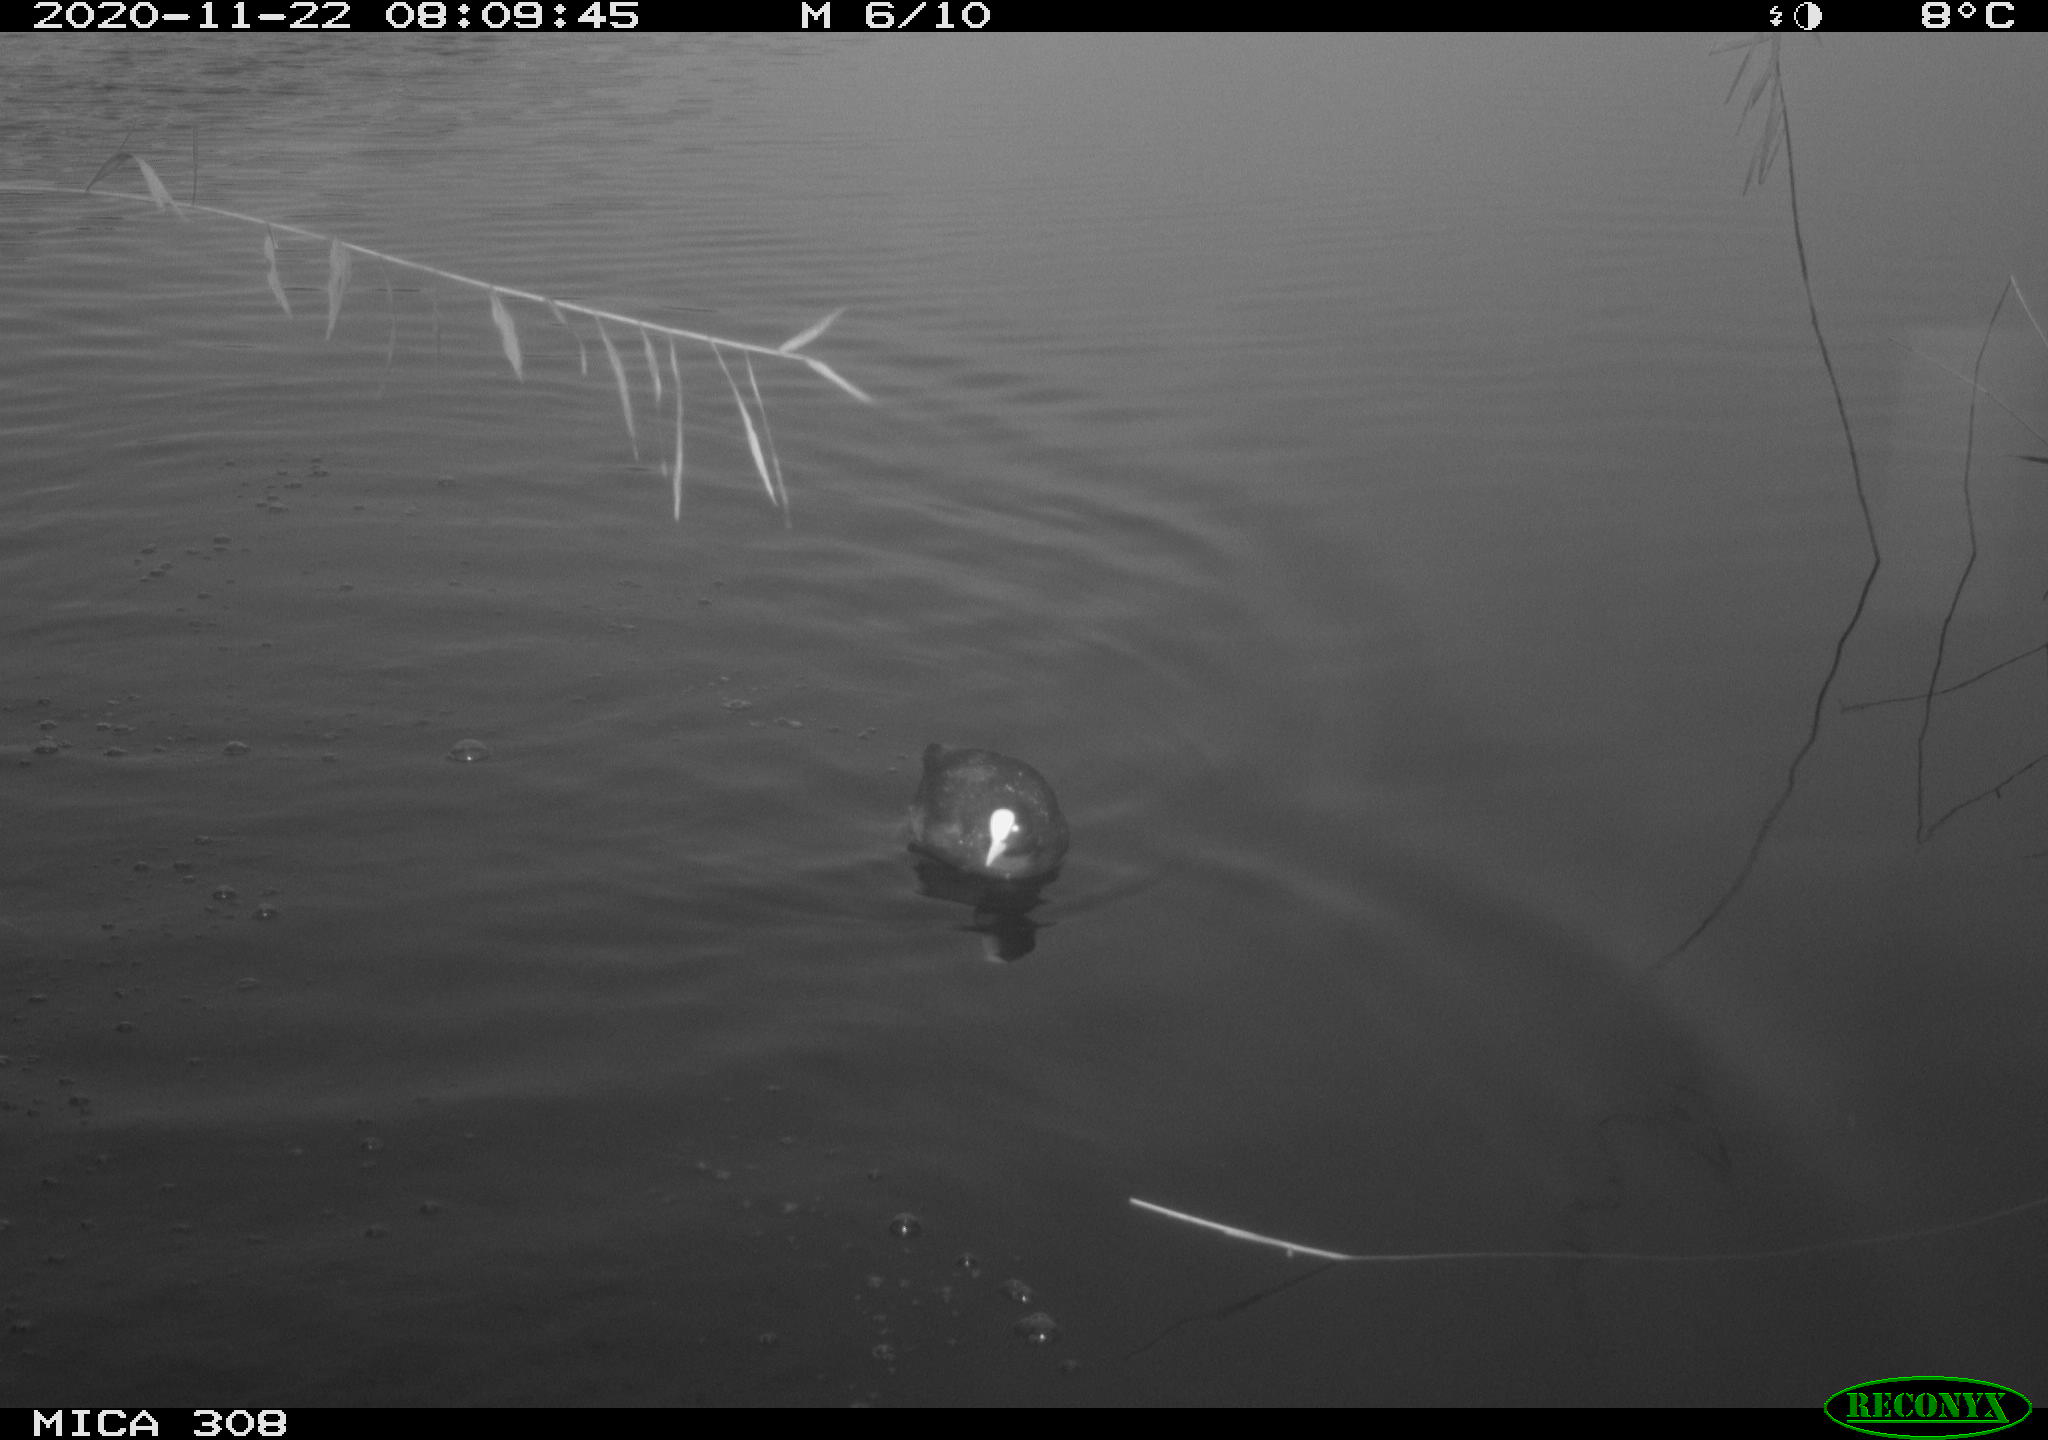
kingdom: Animalia
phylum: Chordata
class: Aves
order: Gruiformes
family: Rallidae
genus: Fulica
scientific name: Fulica atra
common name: Eurasian coot
